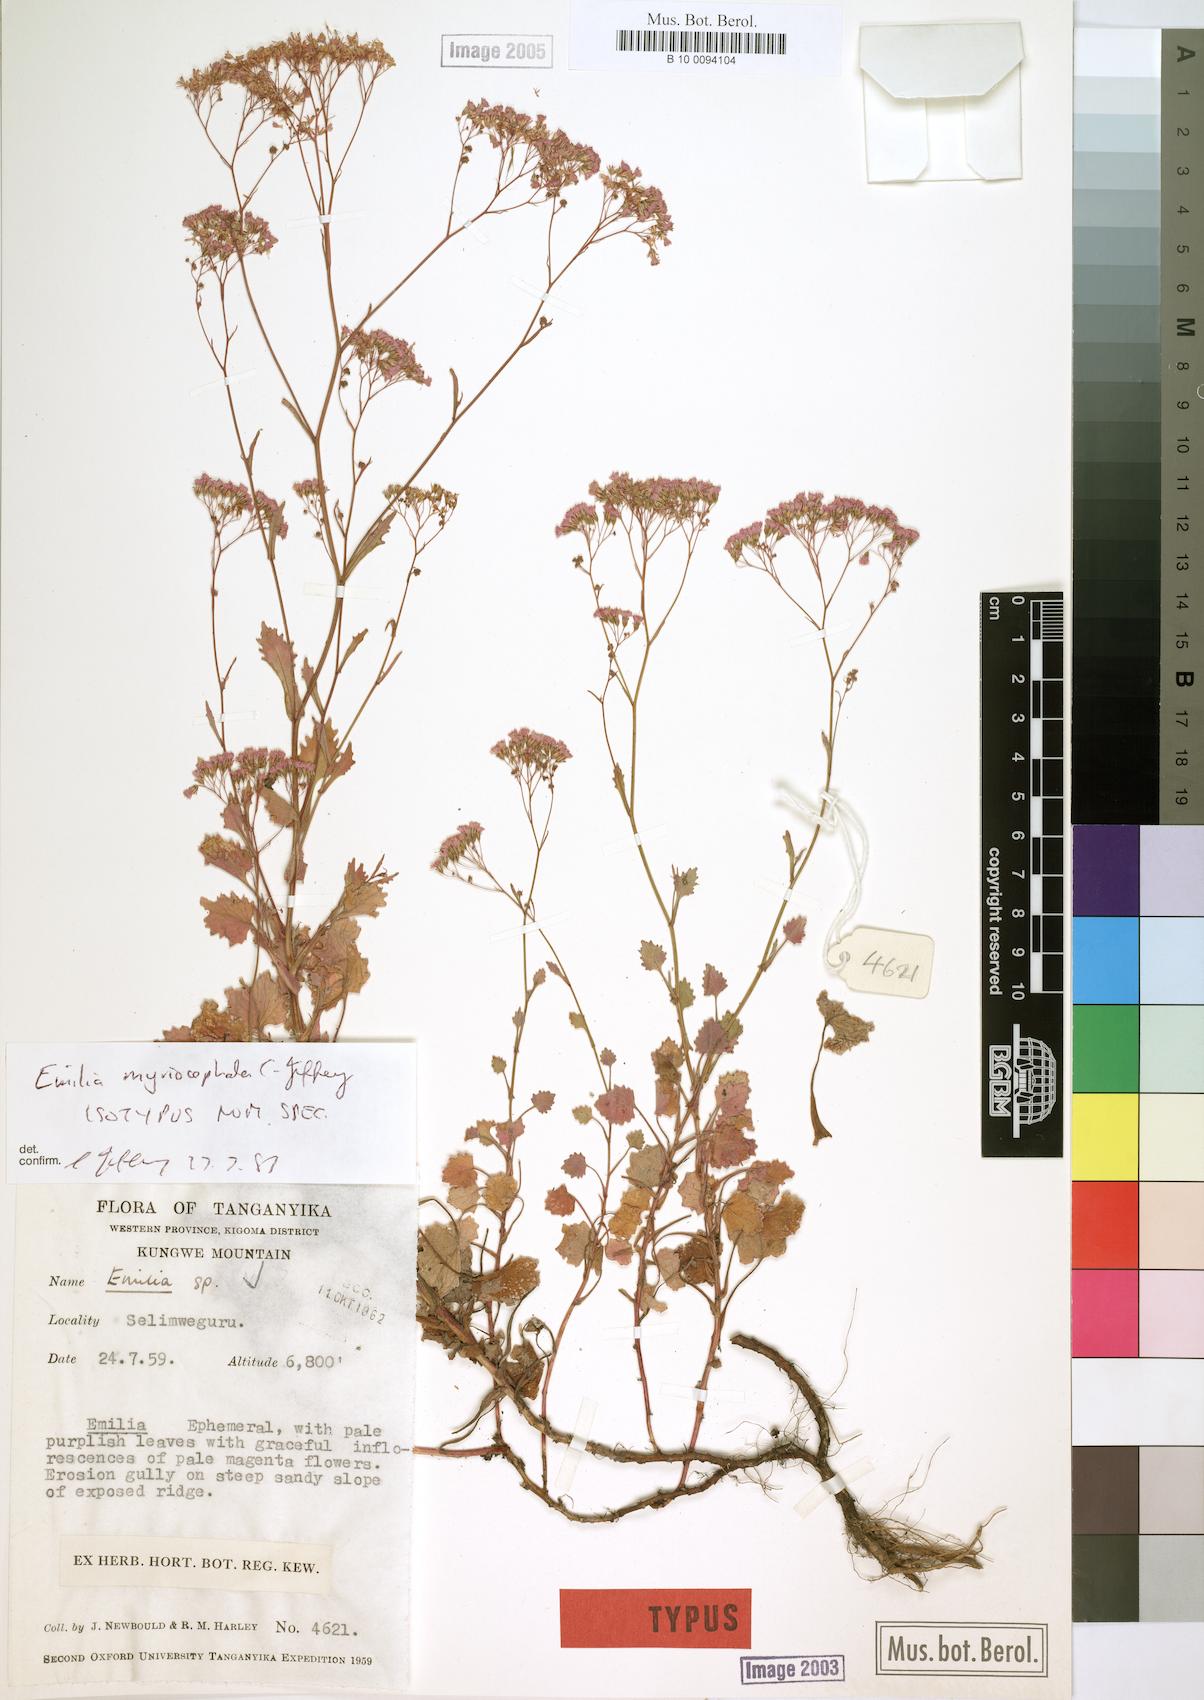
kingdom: Plantae
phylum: Tracheophyta
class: Magnoliopsida
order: Asterales
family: Asteraceae
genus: Emilia
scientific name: Emilia myriocephala
